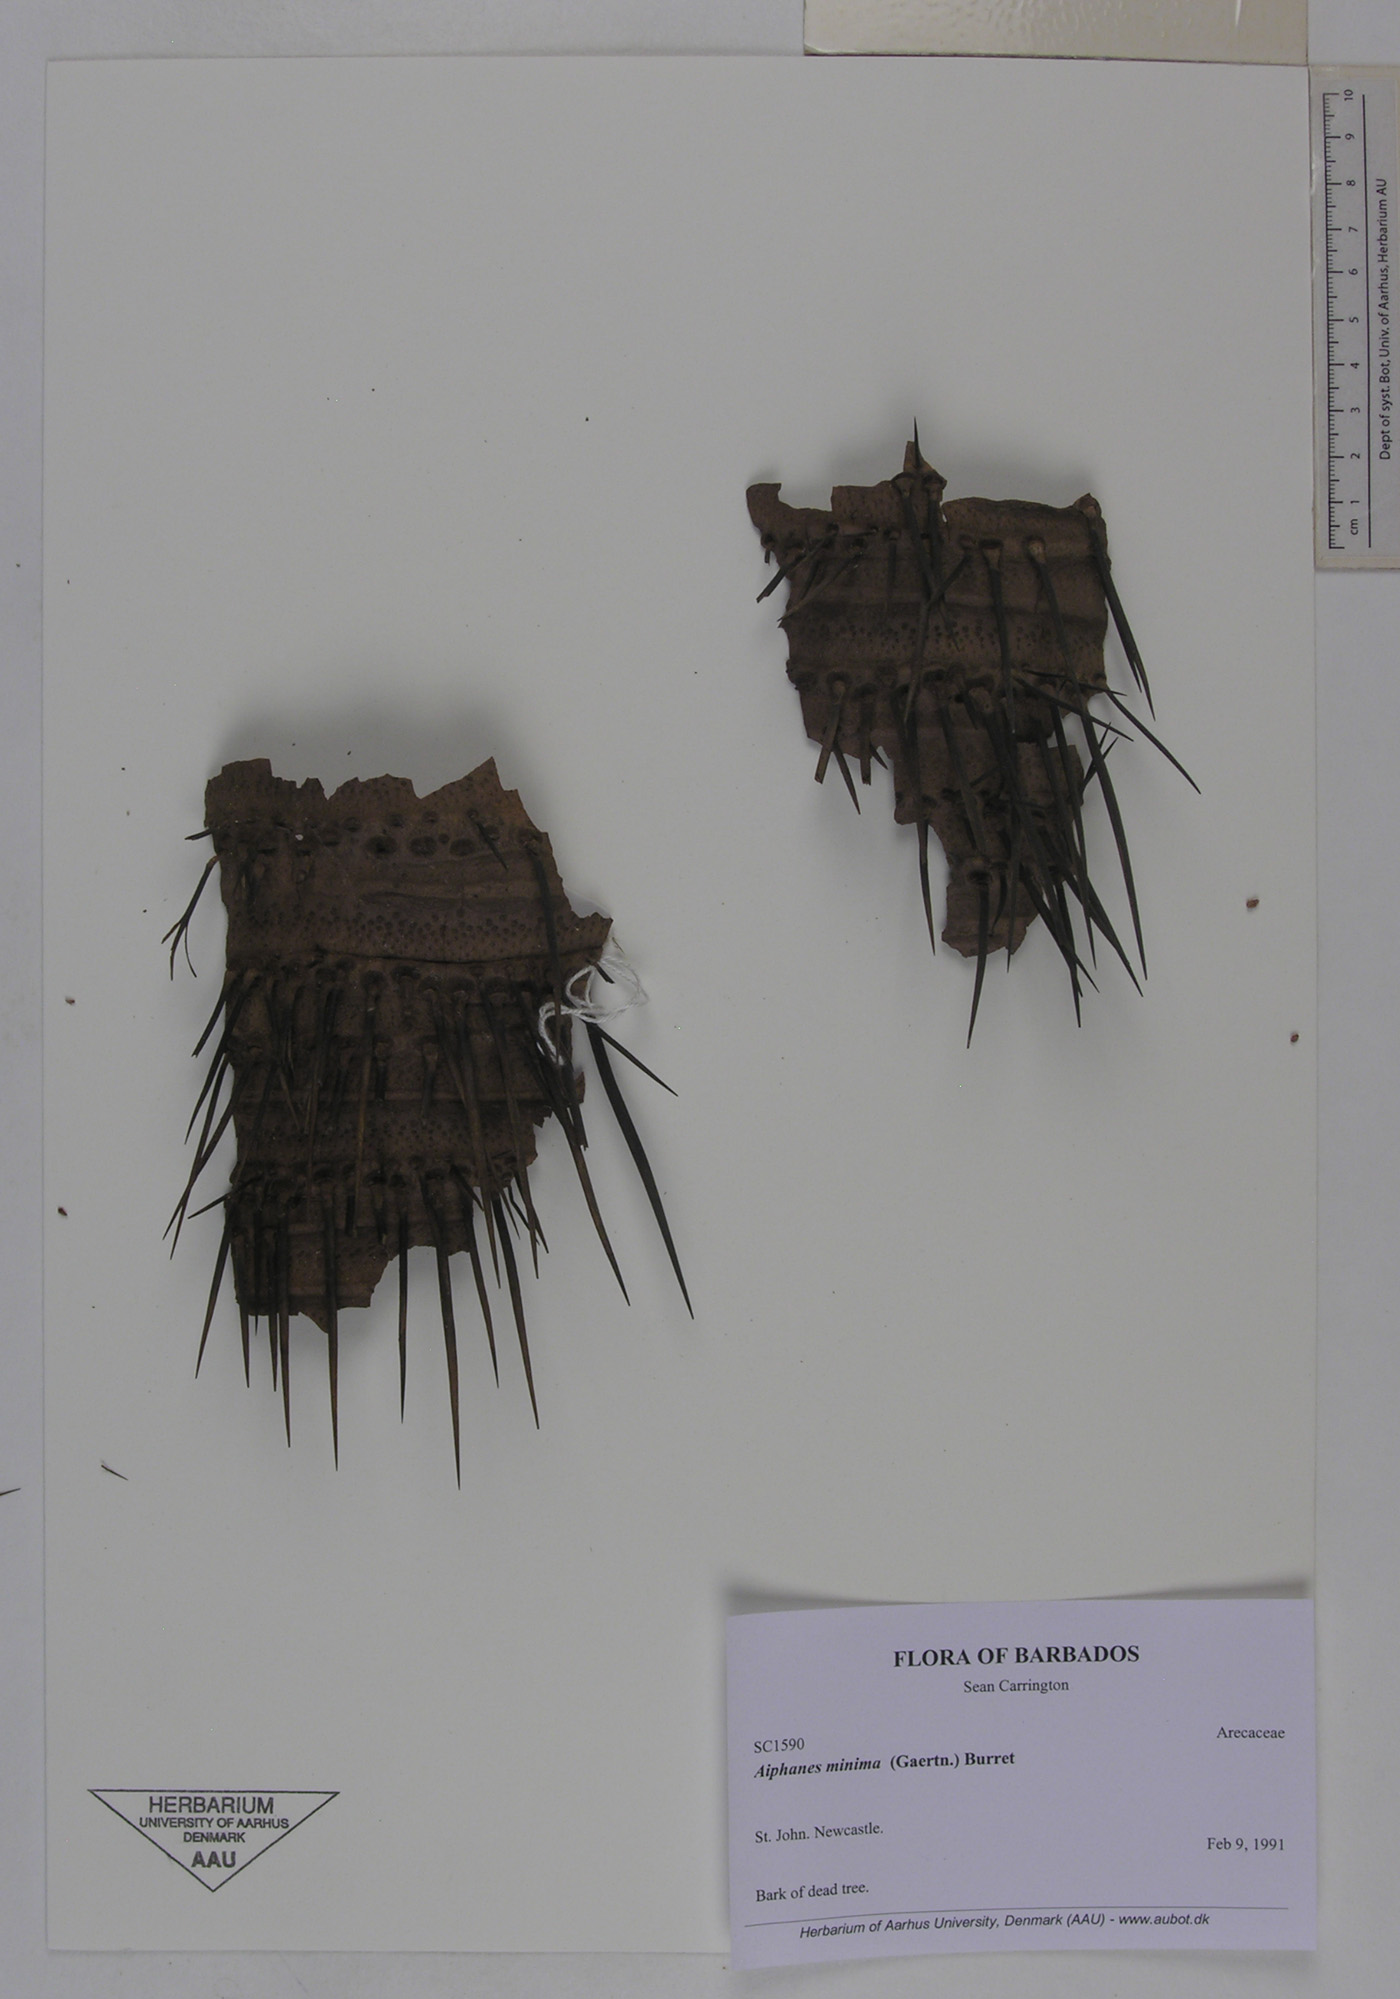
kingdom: Plantae
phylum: Tracheophyta
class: Liliopsida
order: Arecales
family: Arecaceae
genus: Aiphanes
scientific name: Aiphanes minima
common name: Grigri
